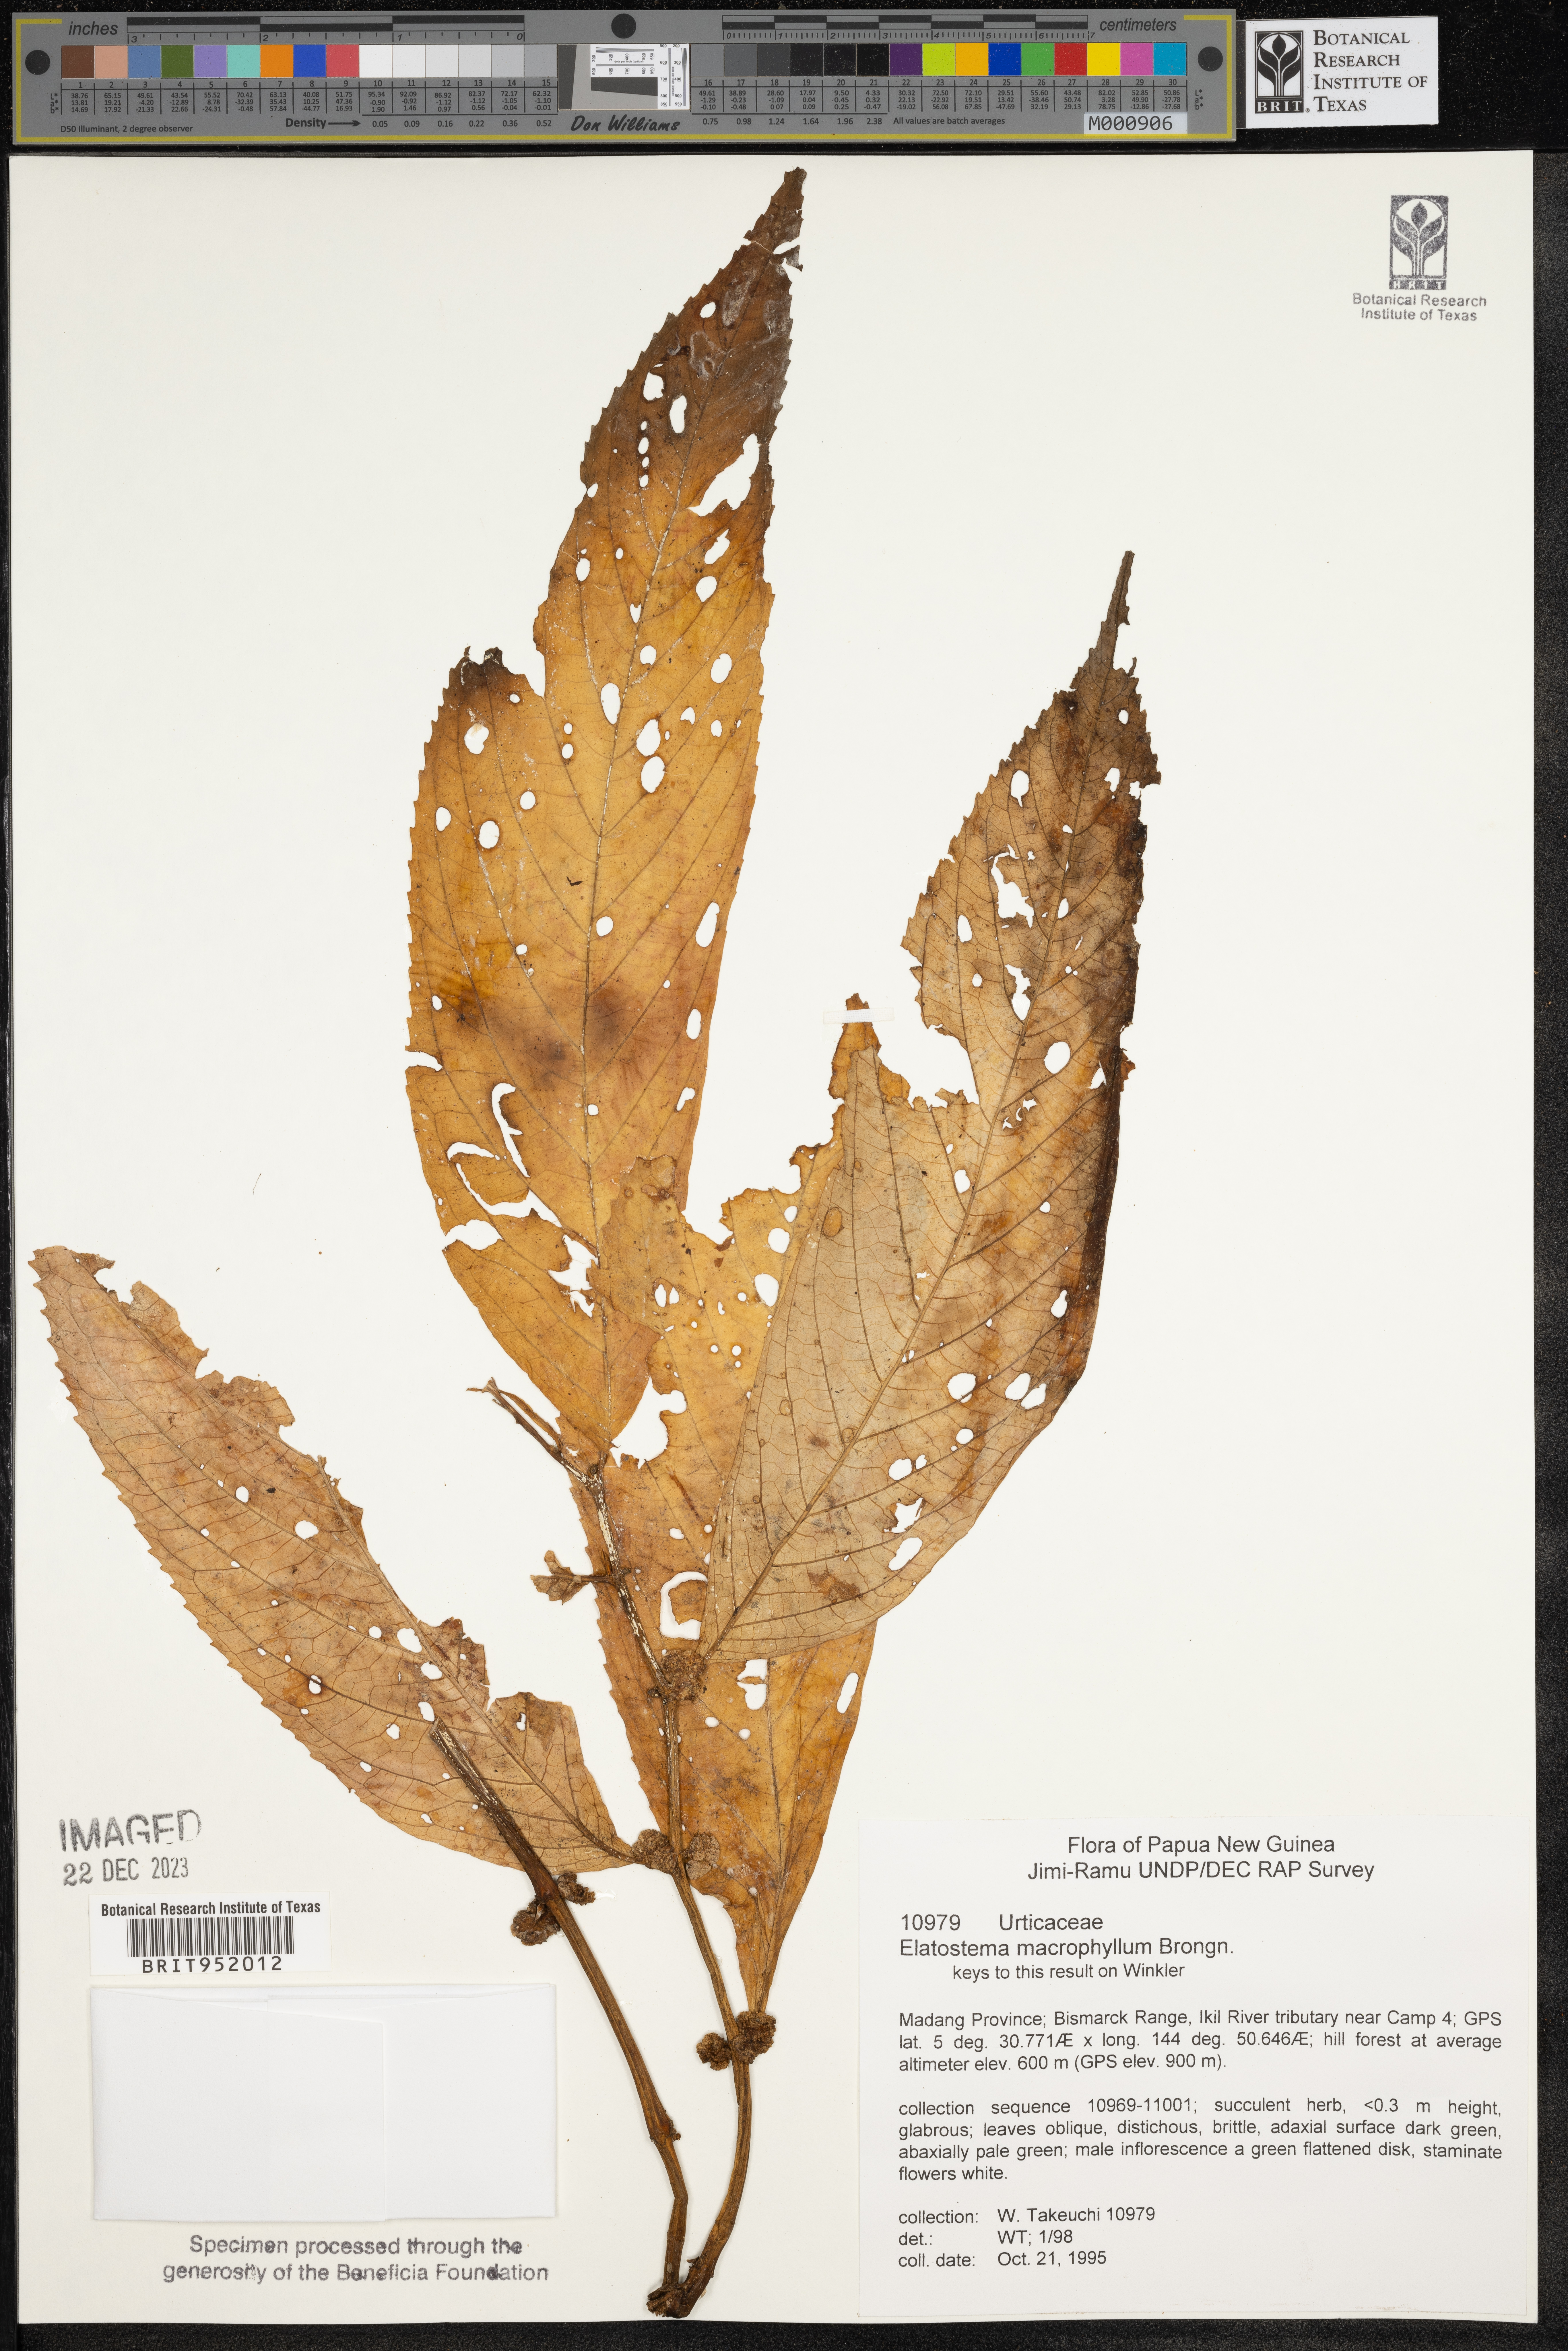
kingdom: Plantae
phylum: Tracheophyta
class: Magnoliopsida
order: Rosales
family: Urticaceae
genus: Elatostema
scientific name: Elatostema
